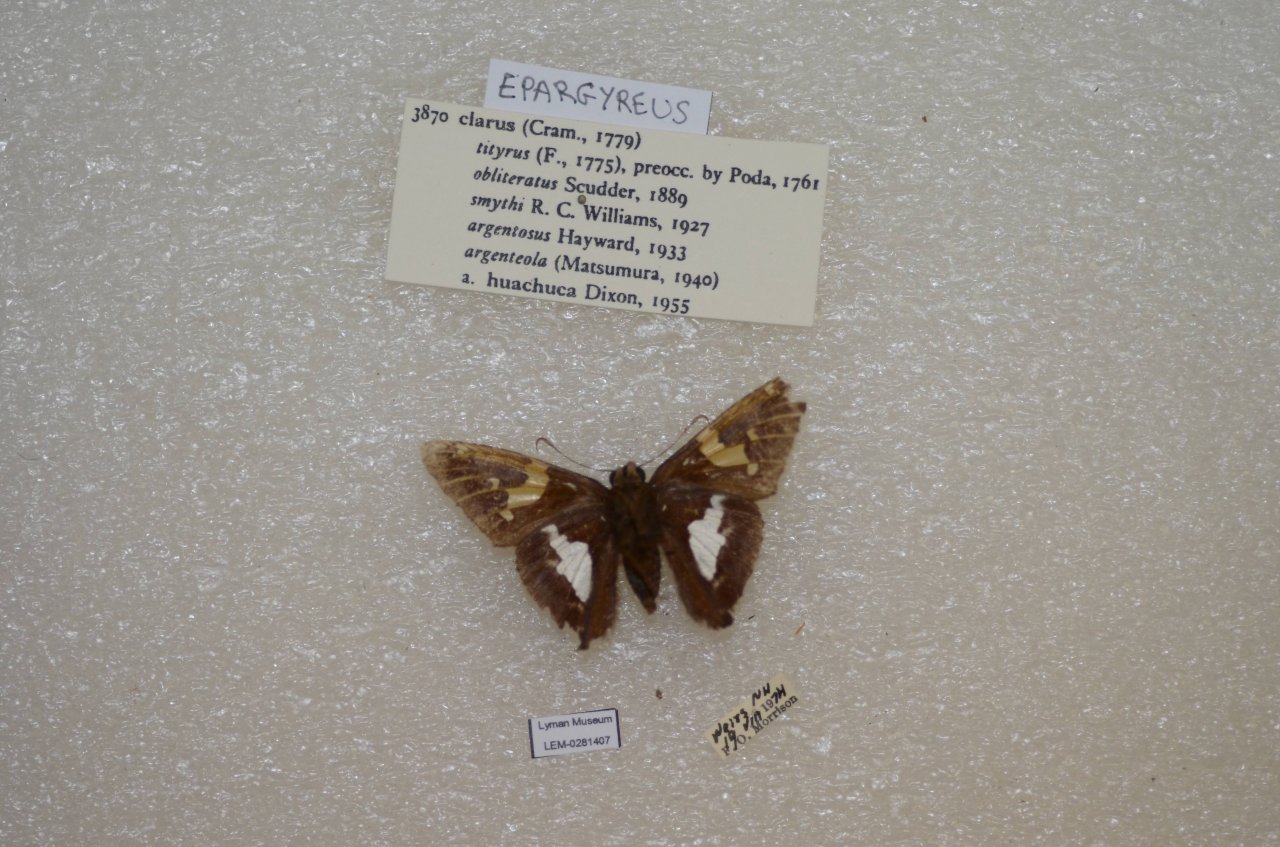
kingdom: Animalia
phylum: Arthropoda
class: Insecta
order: Lepidoptera
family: Hesperiidae
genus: Epargyreus
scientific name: Epargyreus clarus
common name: Silver-spotted Skipper
